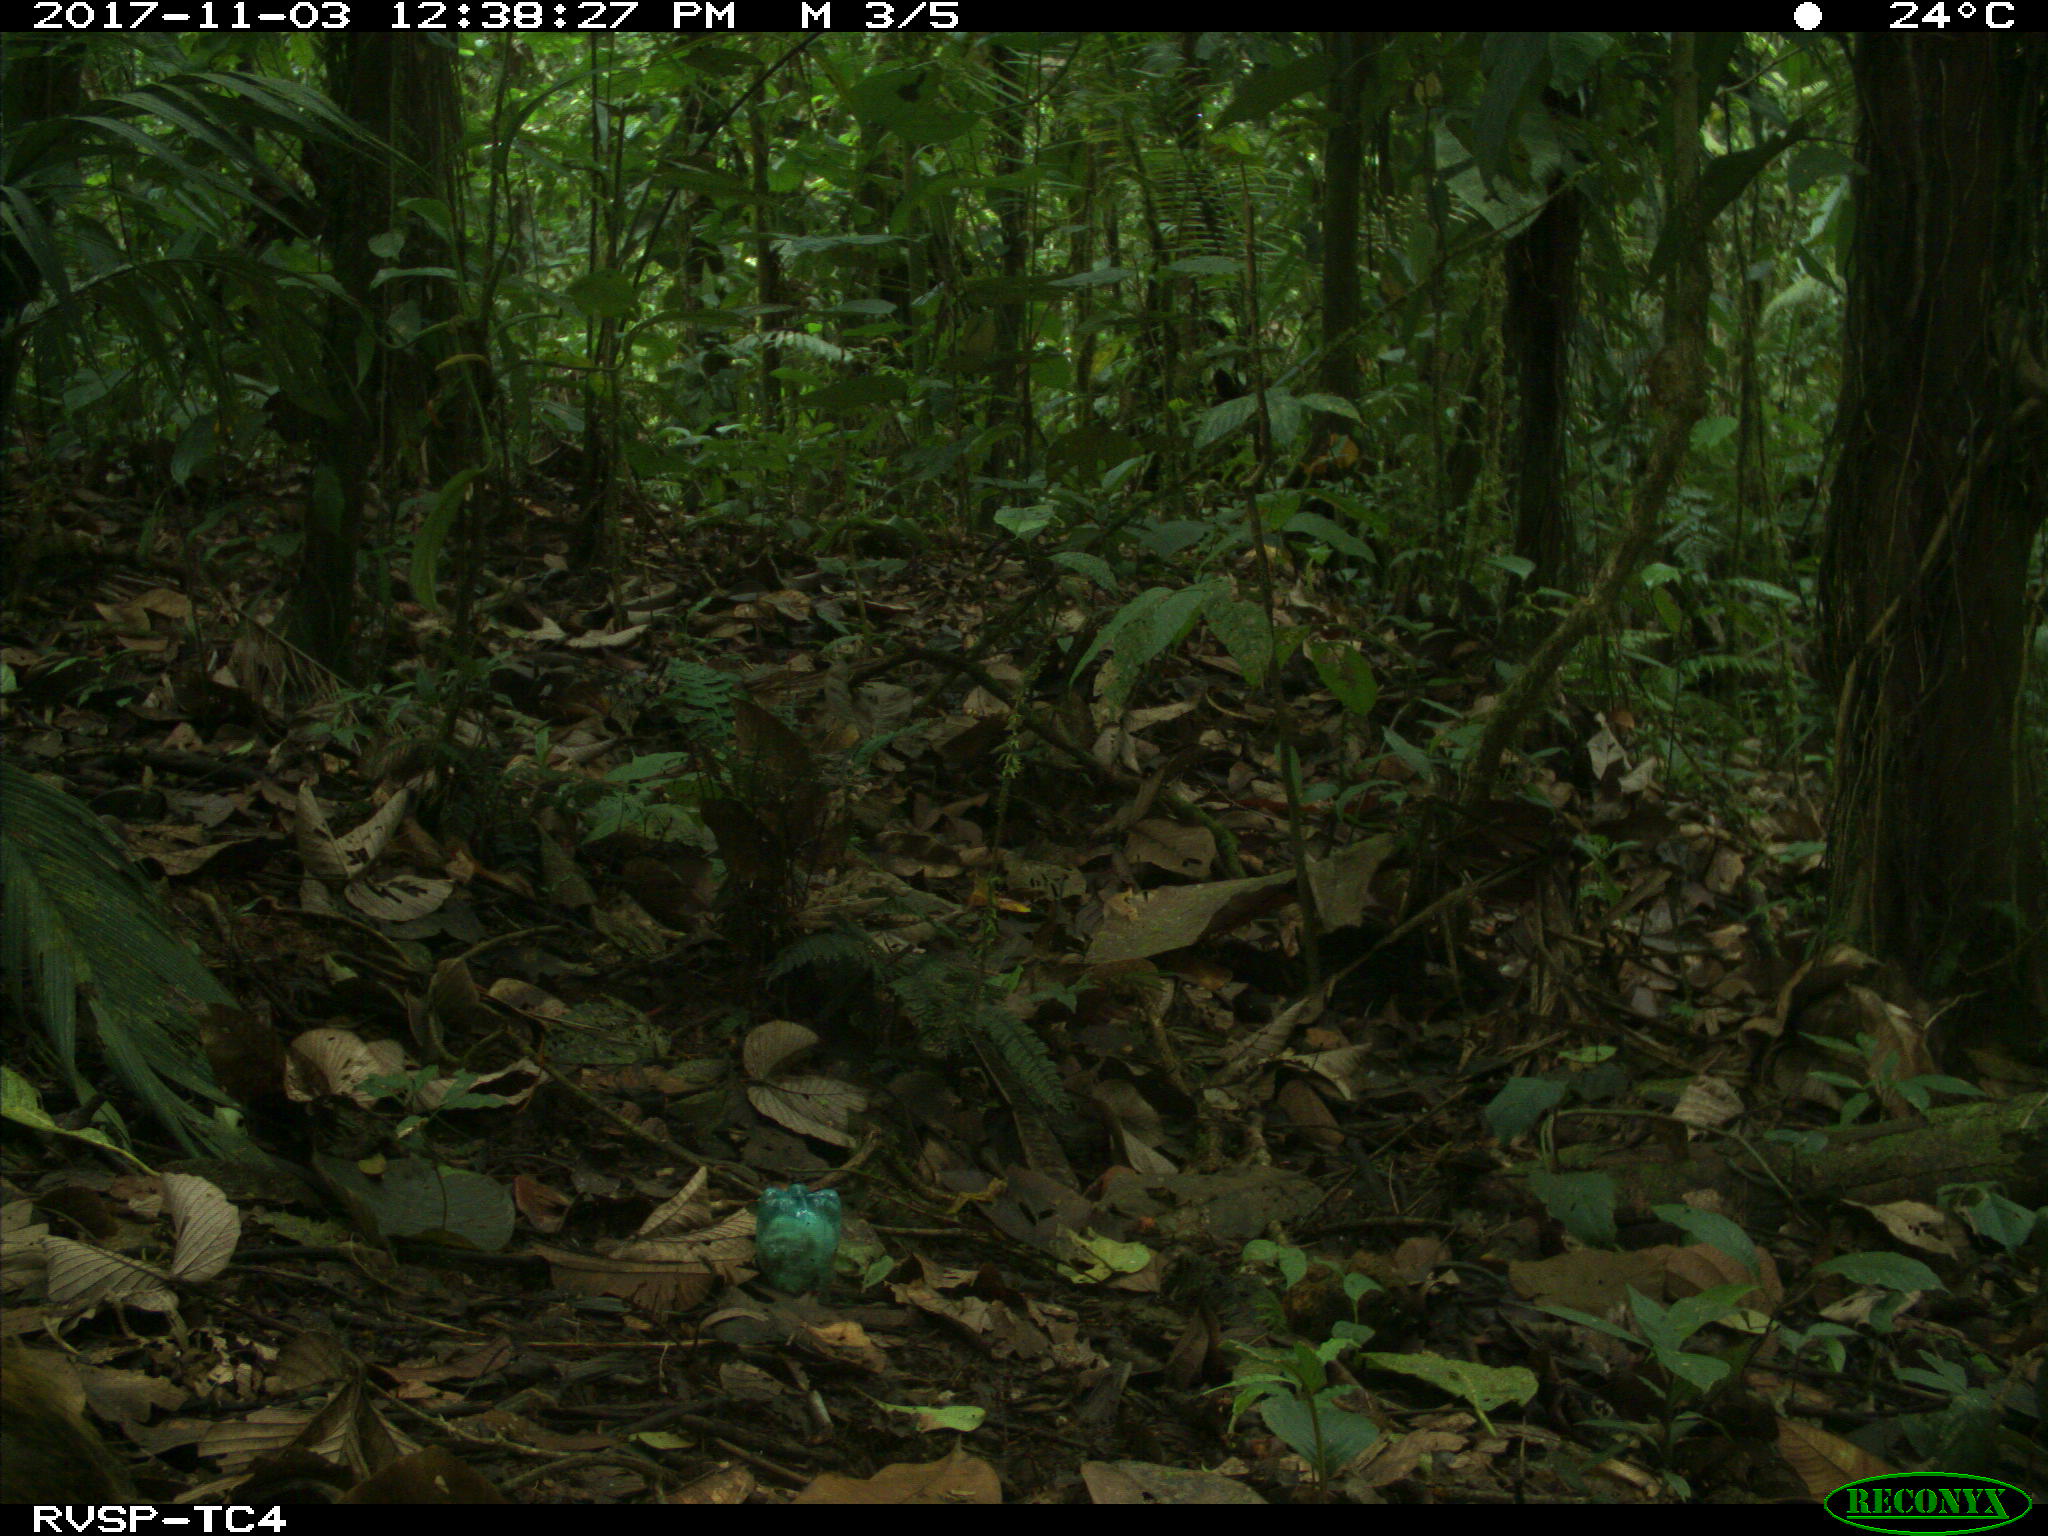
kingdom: Animalia
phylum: Chordata
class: Mammalia
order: Rodentia
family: Dasyproctidae
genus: Dasyprocta
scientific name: Dasyprocta punctata
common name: Central american agouti
